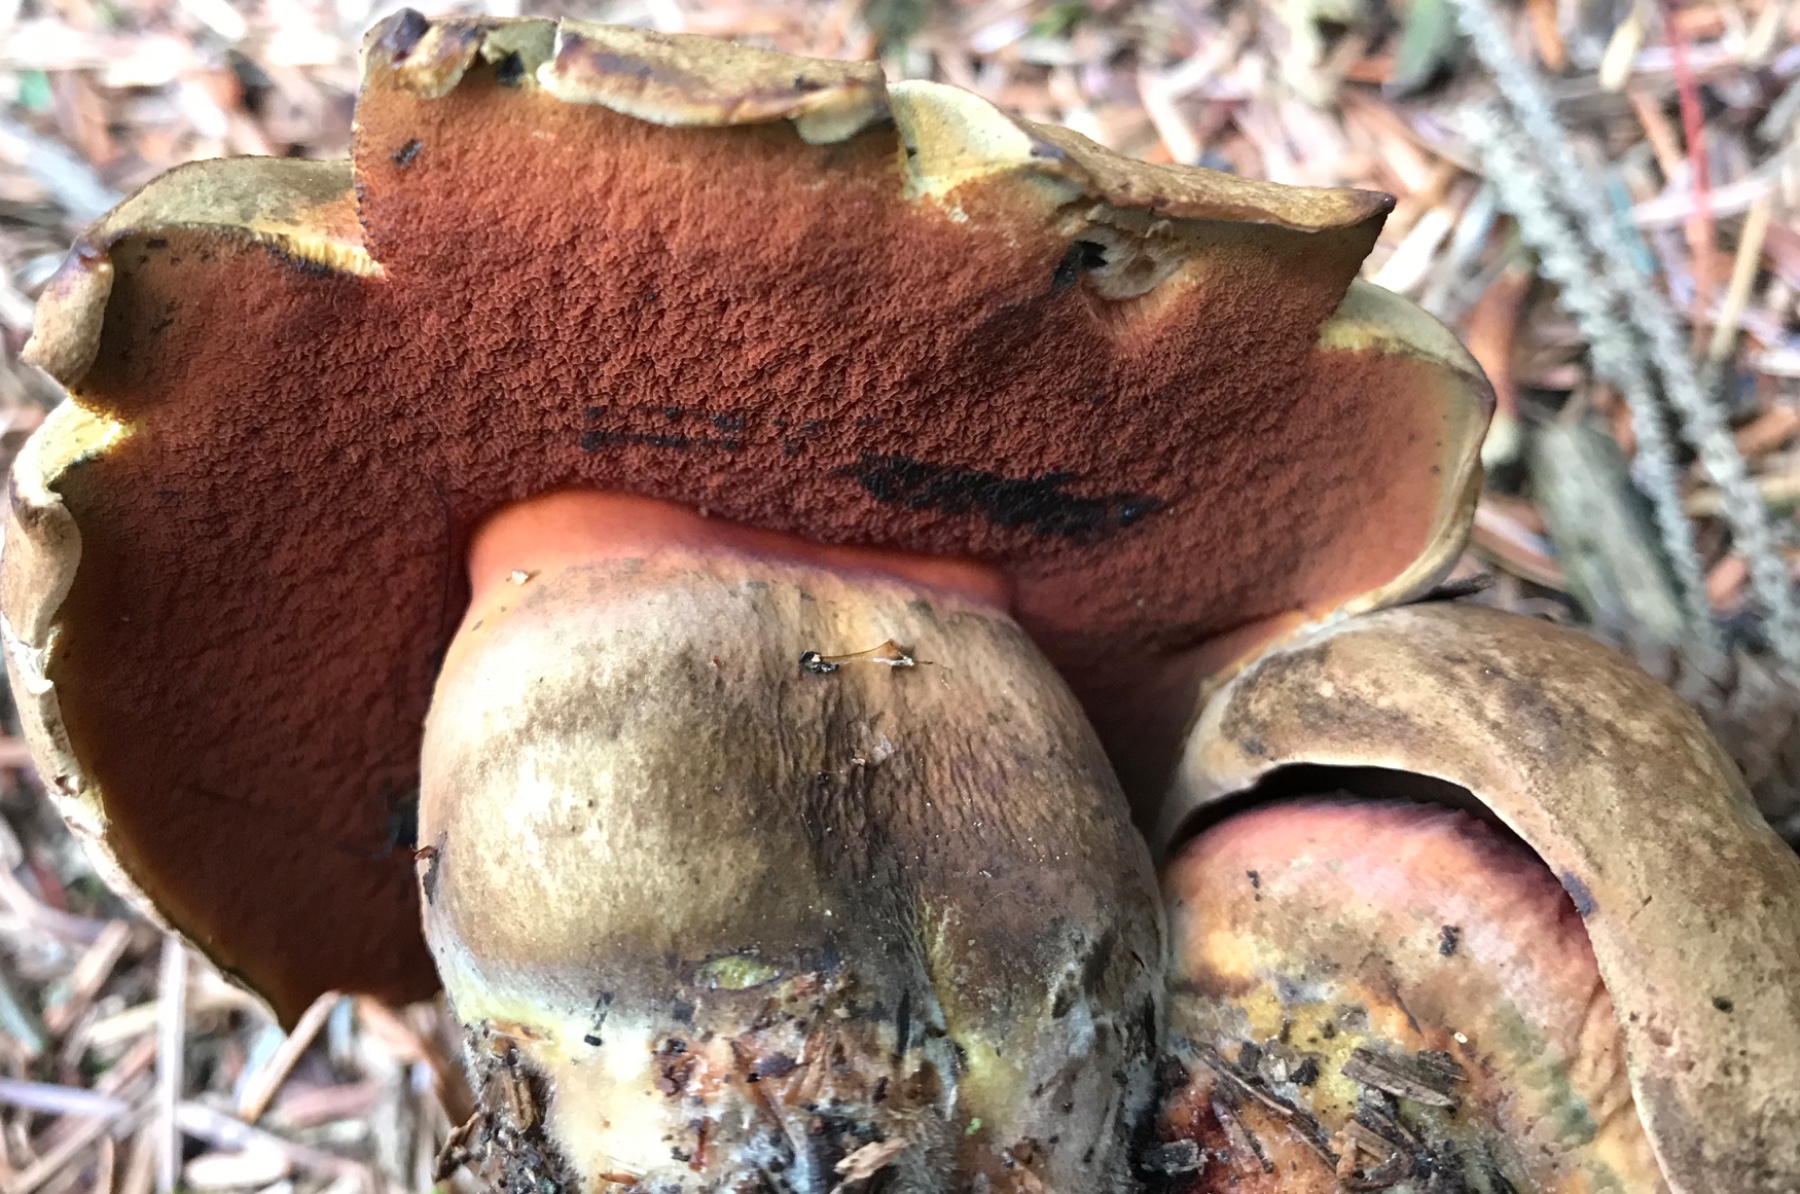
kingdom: Fungi
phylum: Basidiomycota
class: Agaricomycetes
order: Boletales
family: Boletaceae
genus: Neoboletus
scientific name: Neoboletus erythropus
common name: punktstokket indigorørhat
